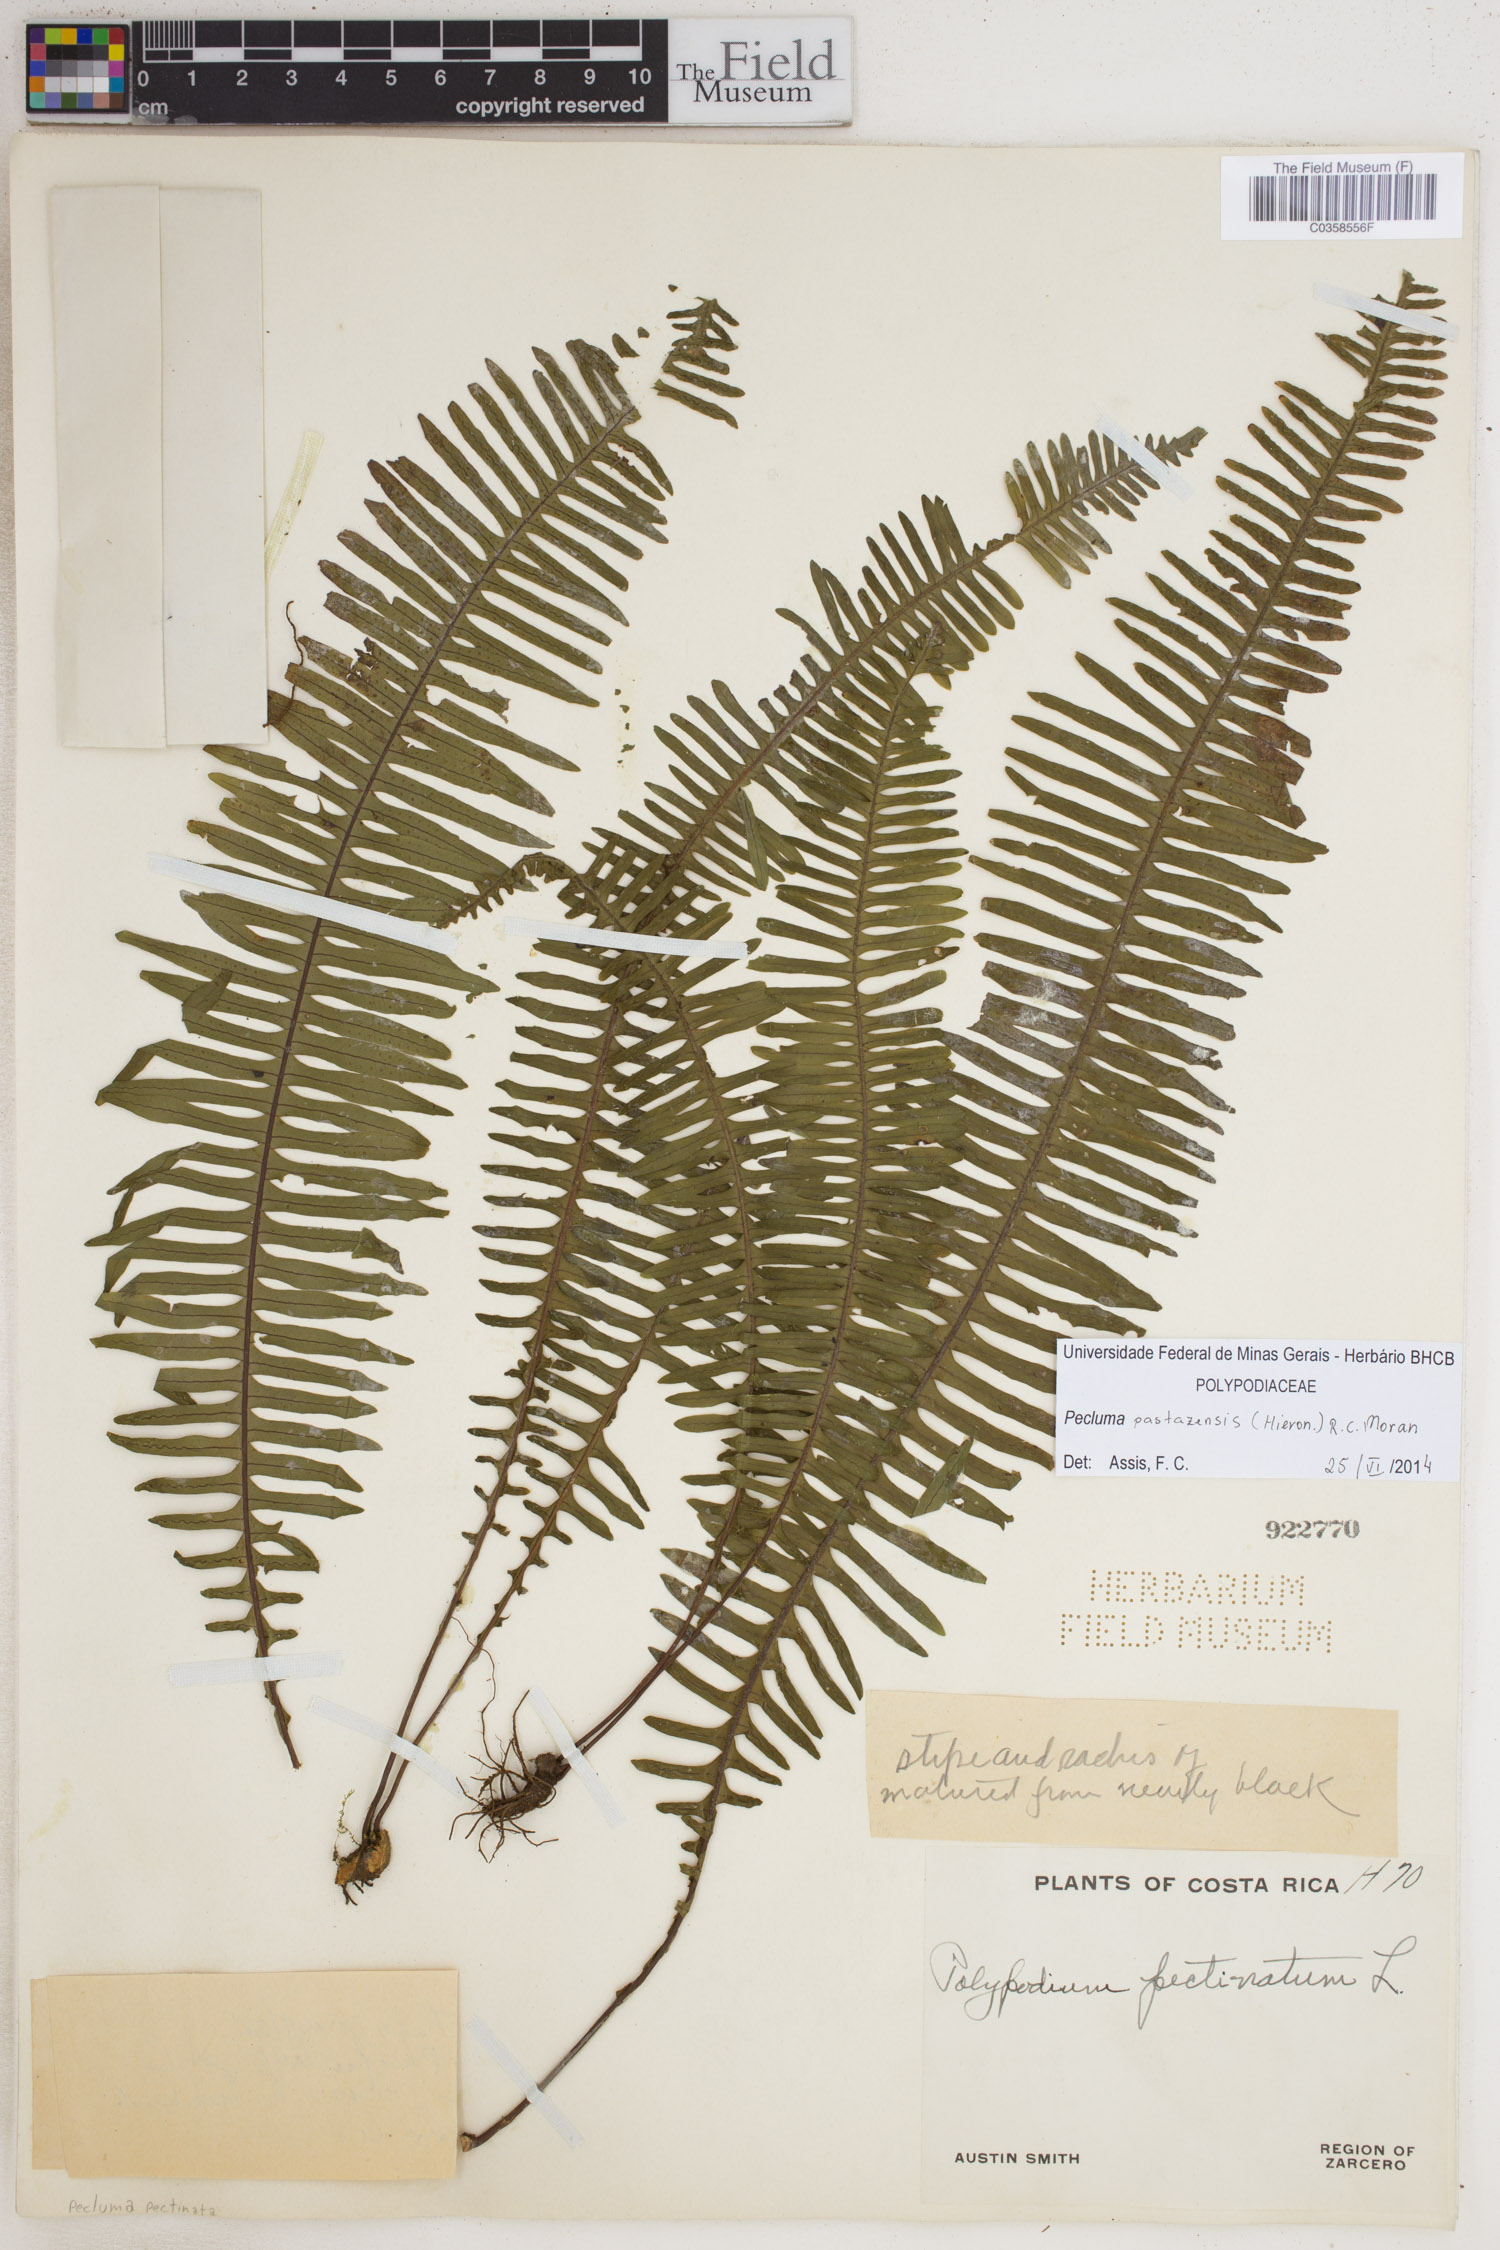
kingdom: Plantae
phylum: Tracheophyta
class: Polypodiopsida
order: Polypodiales
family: Polypodiaceae
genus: Pecluma
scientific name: Pecluma pastazensis
